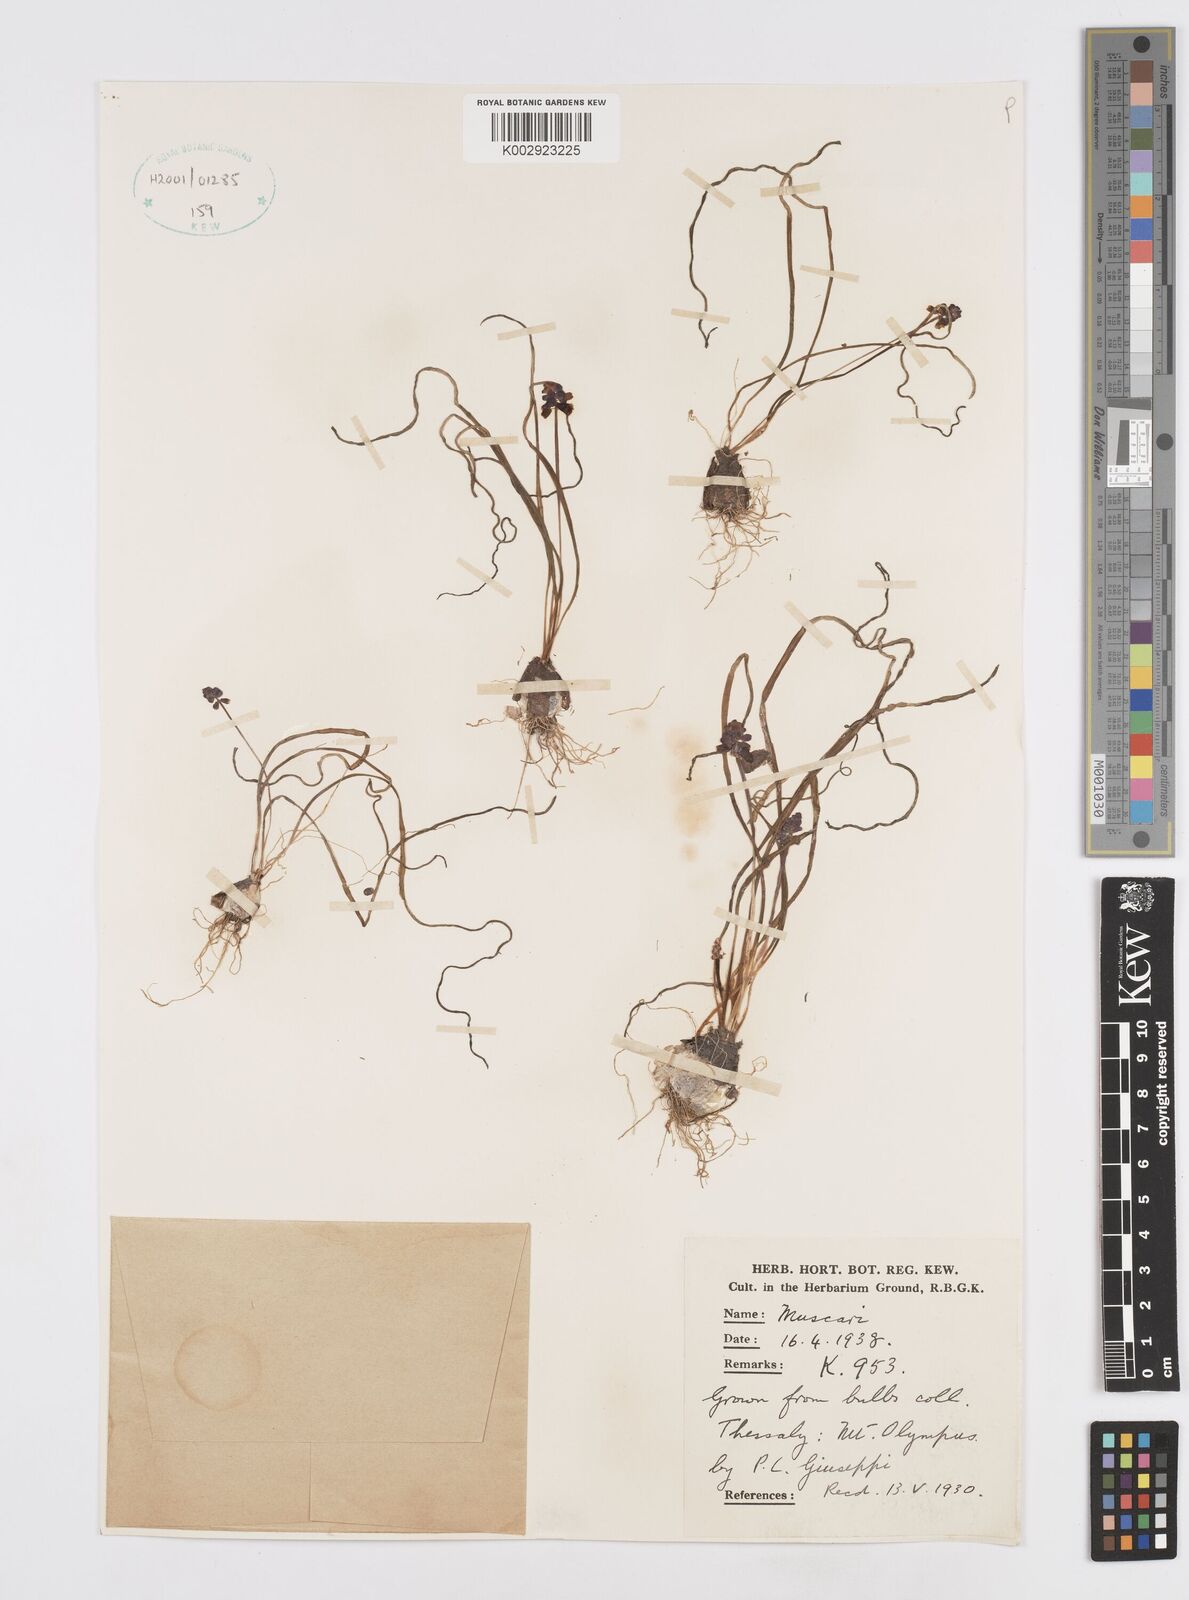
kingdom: Plantae
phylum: Tracheophyta
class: Liliopsida
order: Asparagales
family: Asparagaceae
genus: Muscari
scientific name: Muscari
